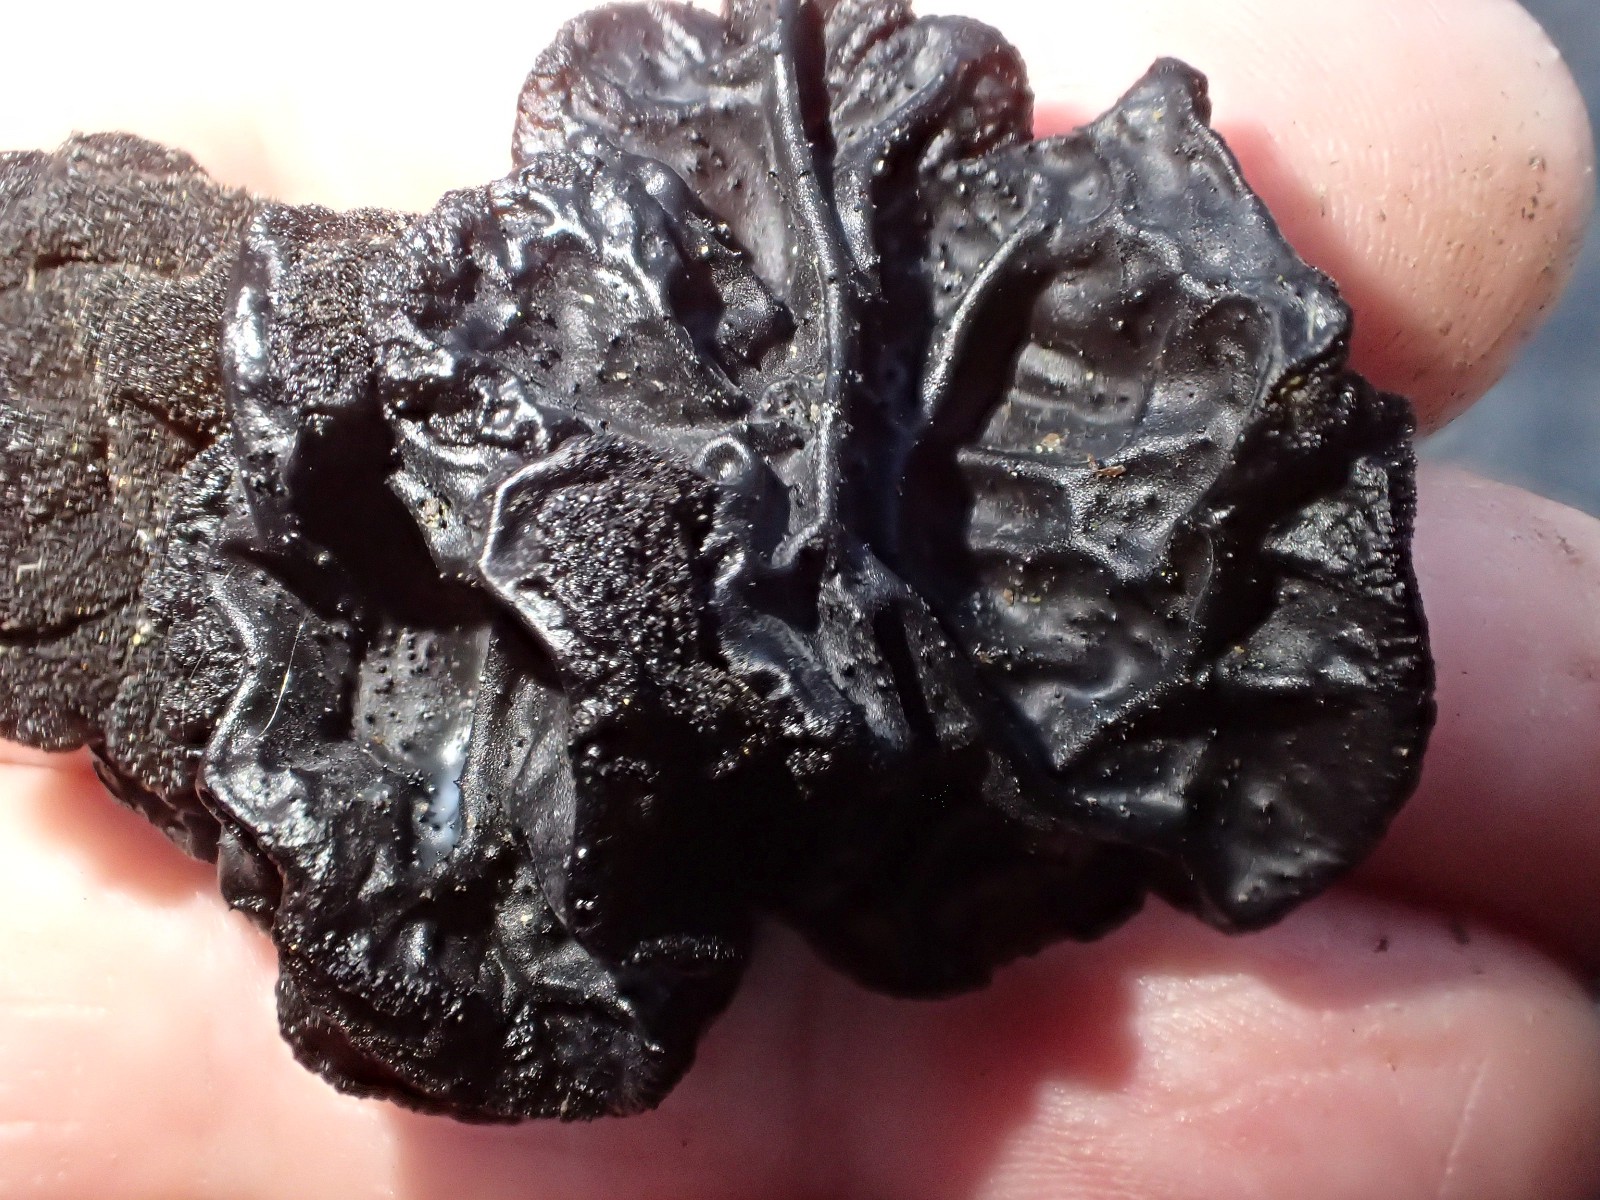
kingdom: Fungi
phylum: Basidiomycota
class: Agaricomycetes
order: Auriculariales
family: Auriculariaceae
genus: Exidia
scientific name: Exidia glandulosa
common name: ege-bævretop
